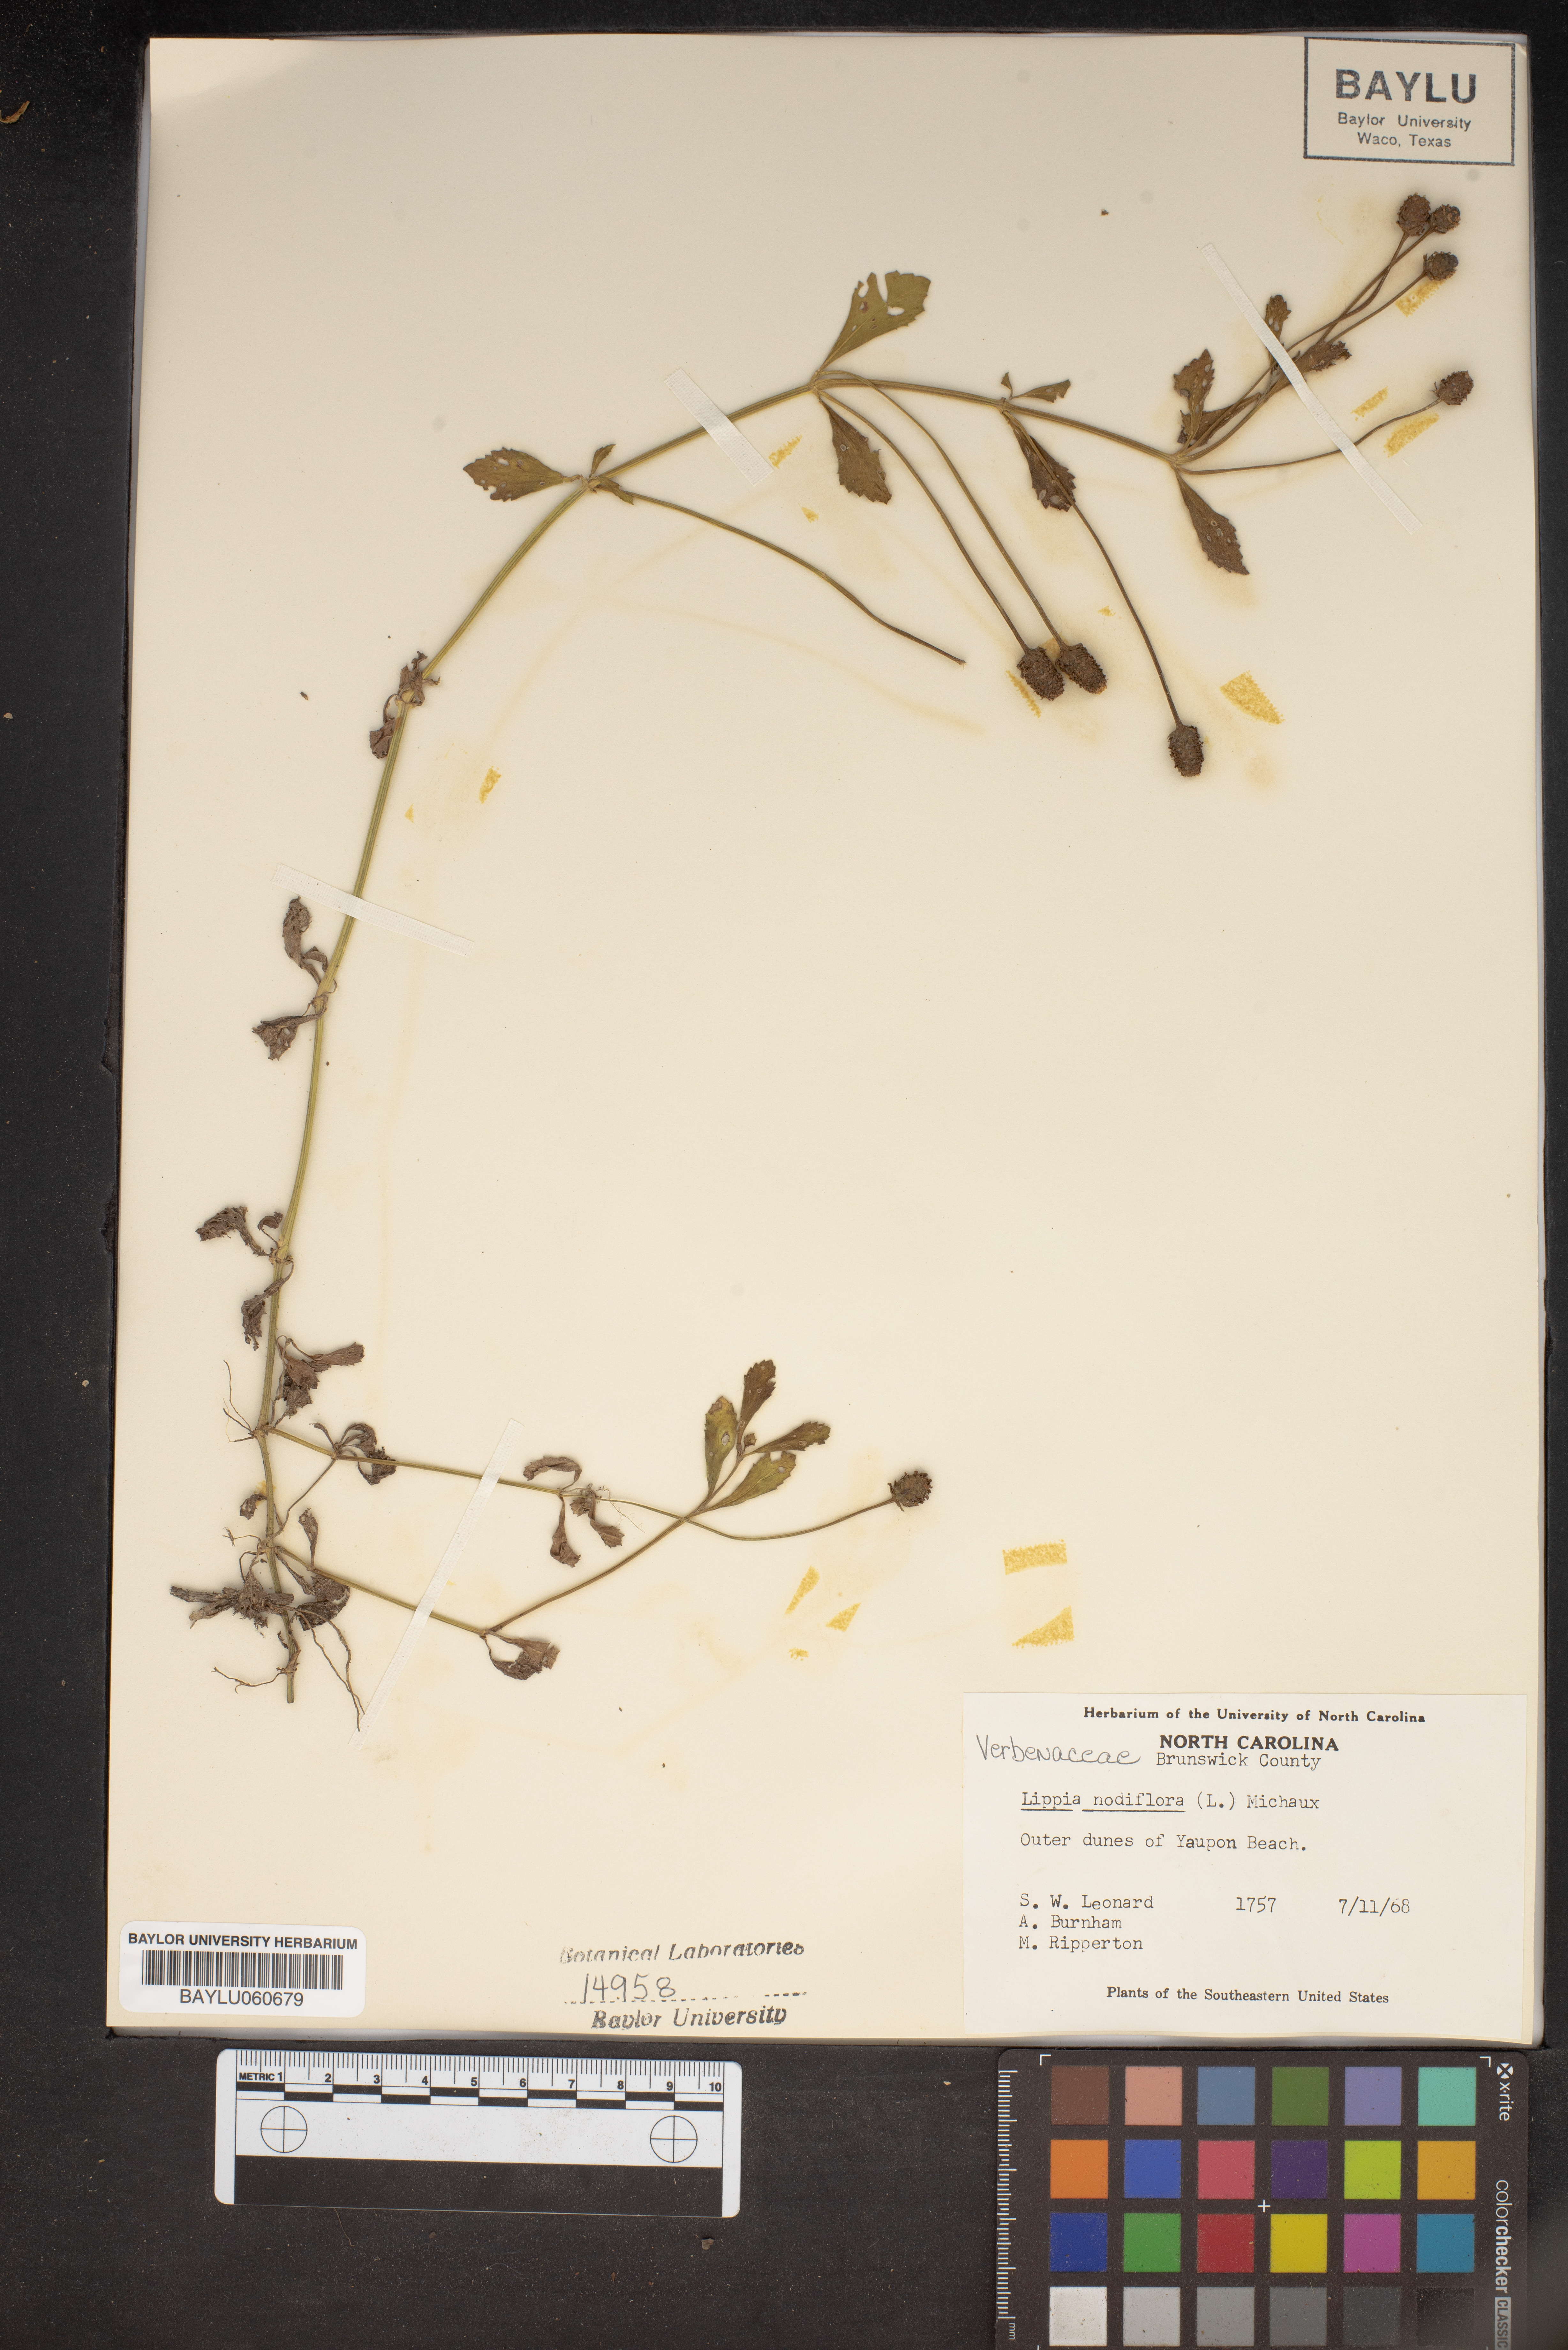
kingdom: Plantae
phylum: Tracheophyta
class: Magnoliopsida
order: Lamiales
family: Verbenaceae
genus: Phyla
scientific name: Phyla nodiflora
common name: Frogfruit
